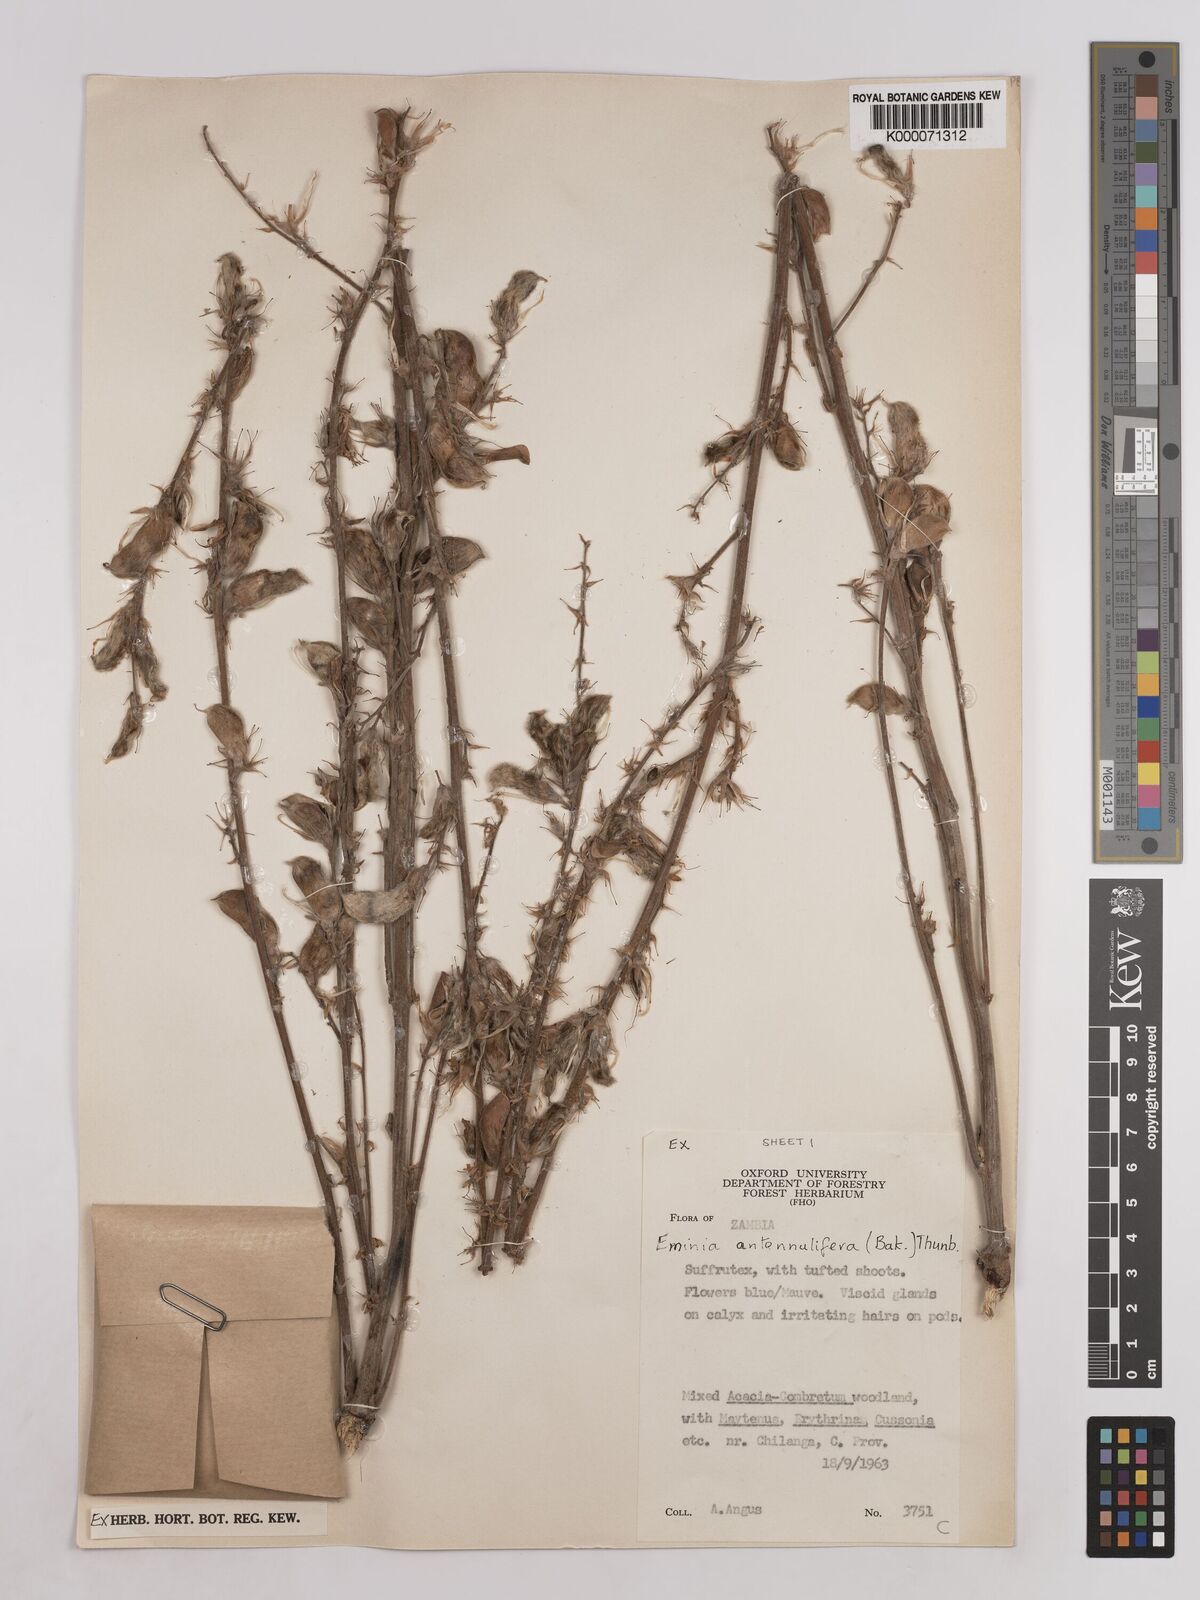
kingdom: Plantae
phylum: Tracheophyta
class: Magnoliopsida
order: Fabales
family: Fabaceae
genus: Eminia
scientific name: Eminia antennulifera
